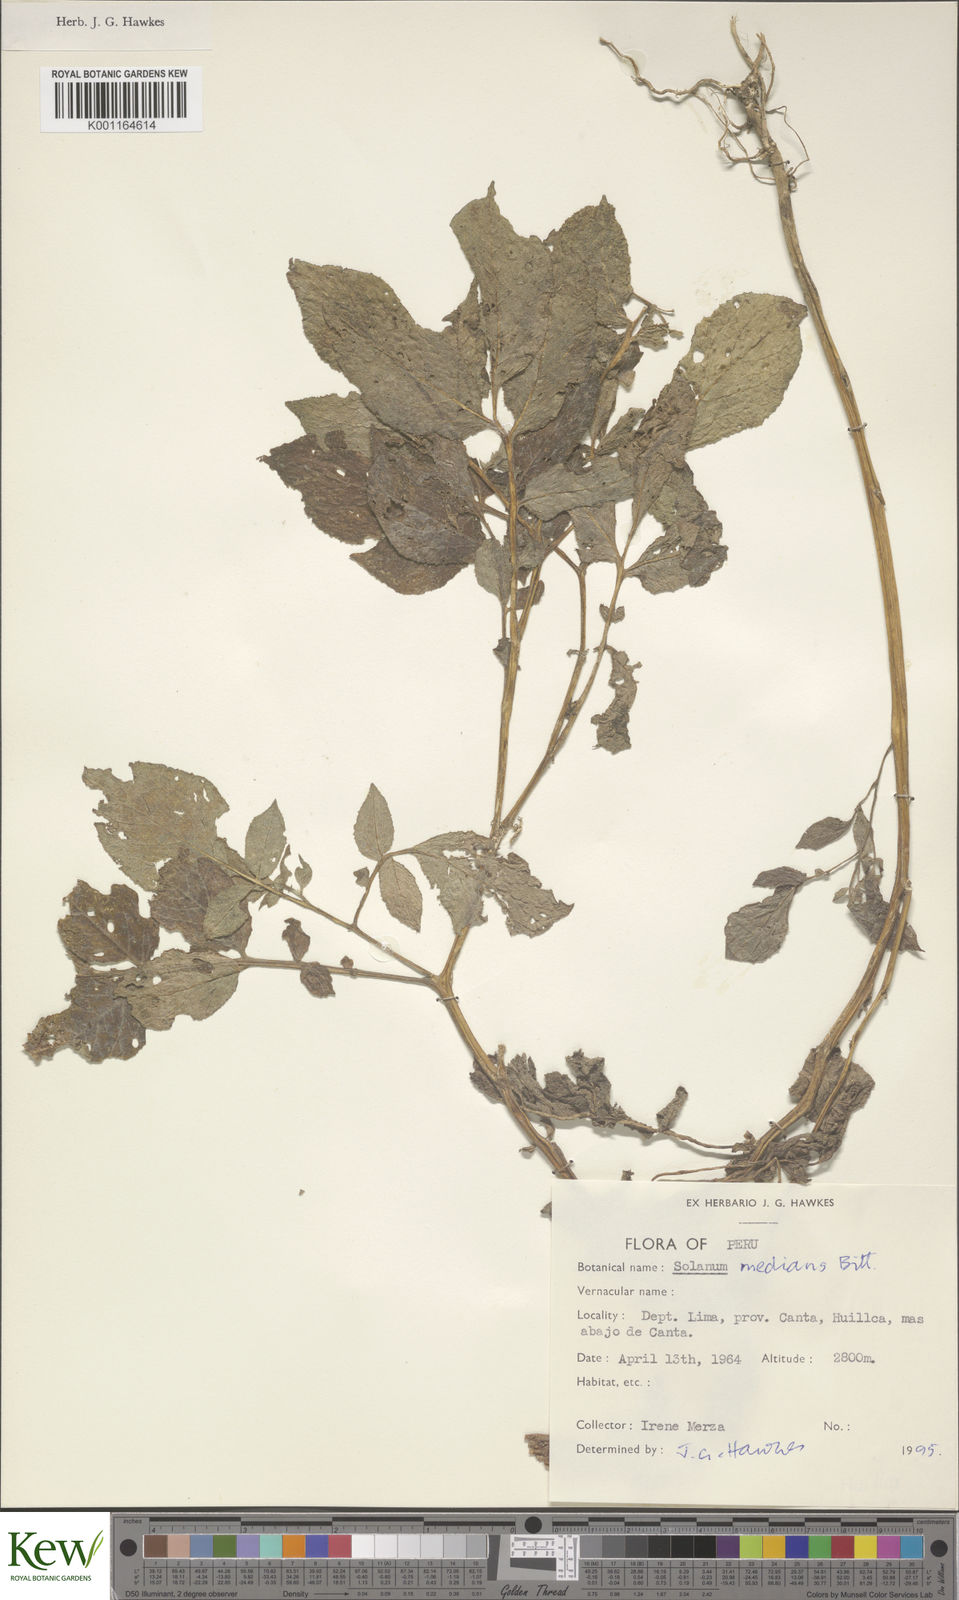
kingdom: Plantae
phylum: Tracheophyta
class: Magnoliopsida
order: Solanales
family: Solanaceae
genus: Solanum
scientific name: Solanum medians
